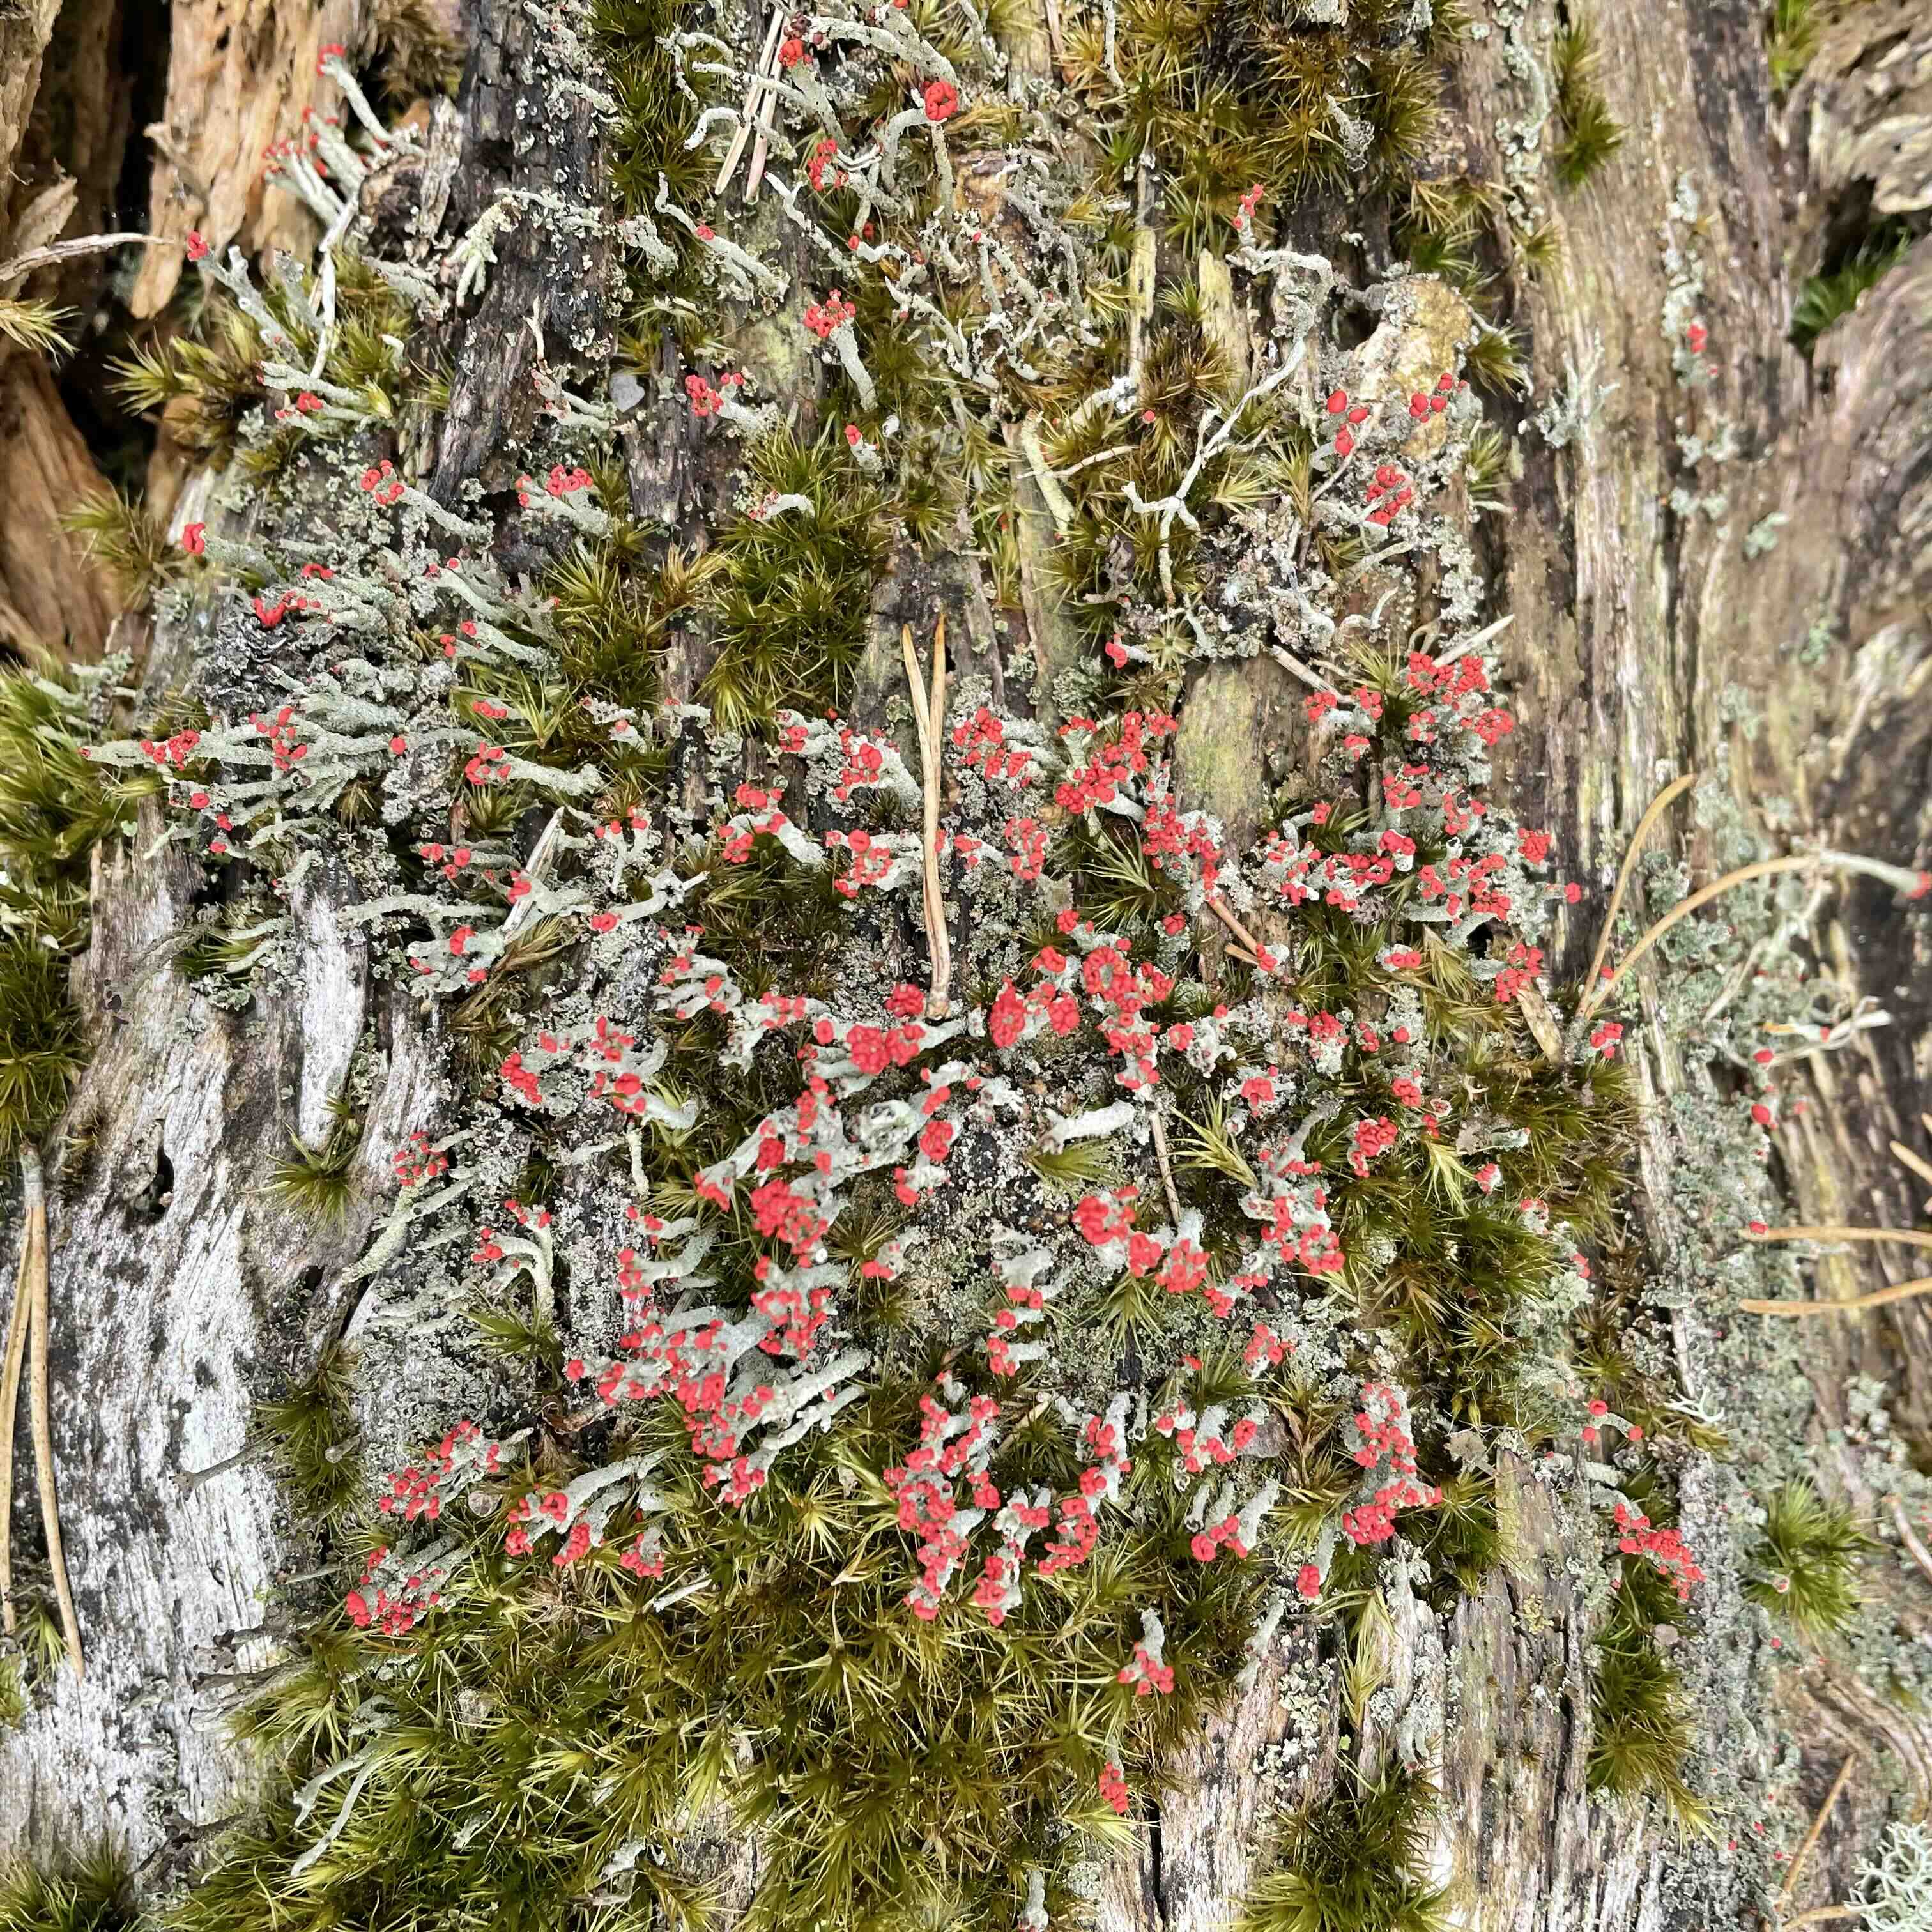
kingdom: Fungi
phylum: Ascomycota
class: Lecanoromycetes
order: Lecanorales
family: Cladoniaceae
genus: Cladonia
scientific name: Cladonia floerkeana
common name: lakrød bægerlav
